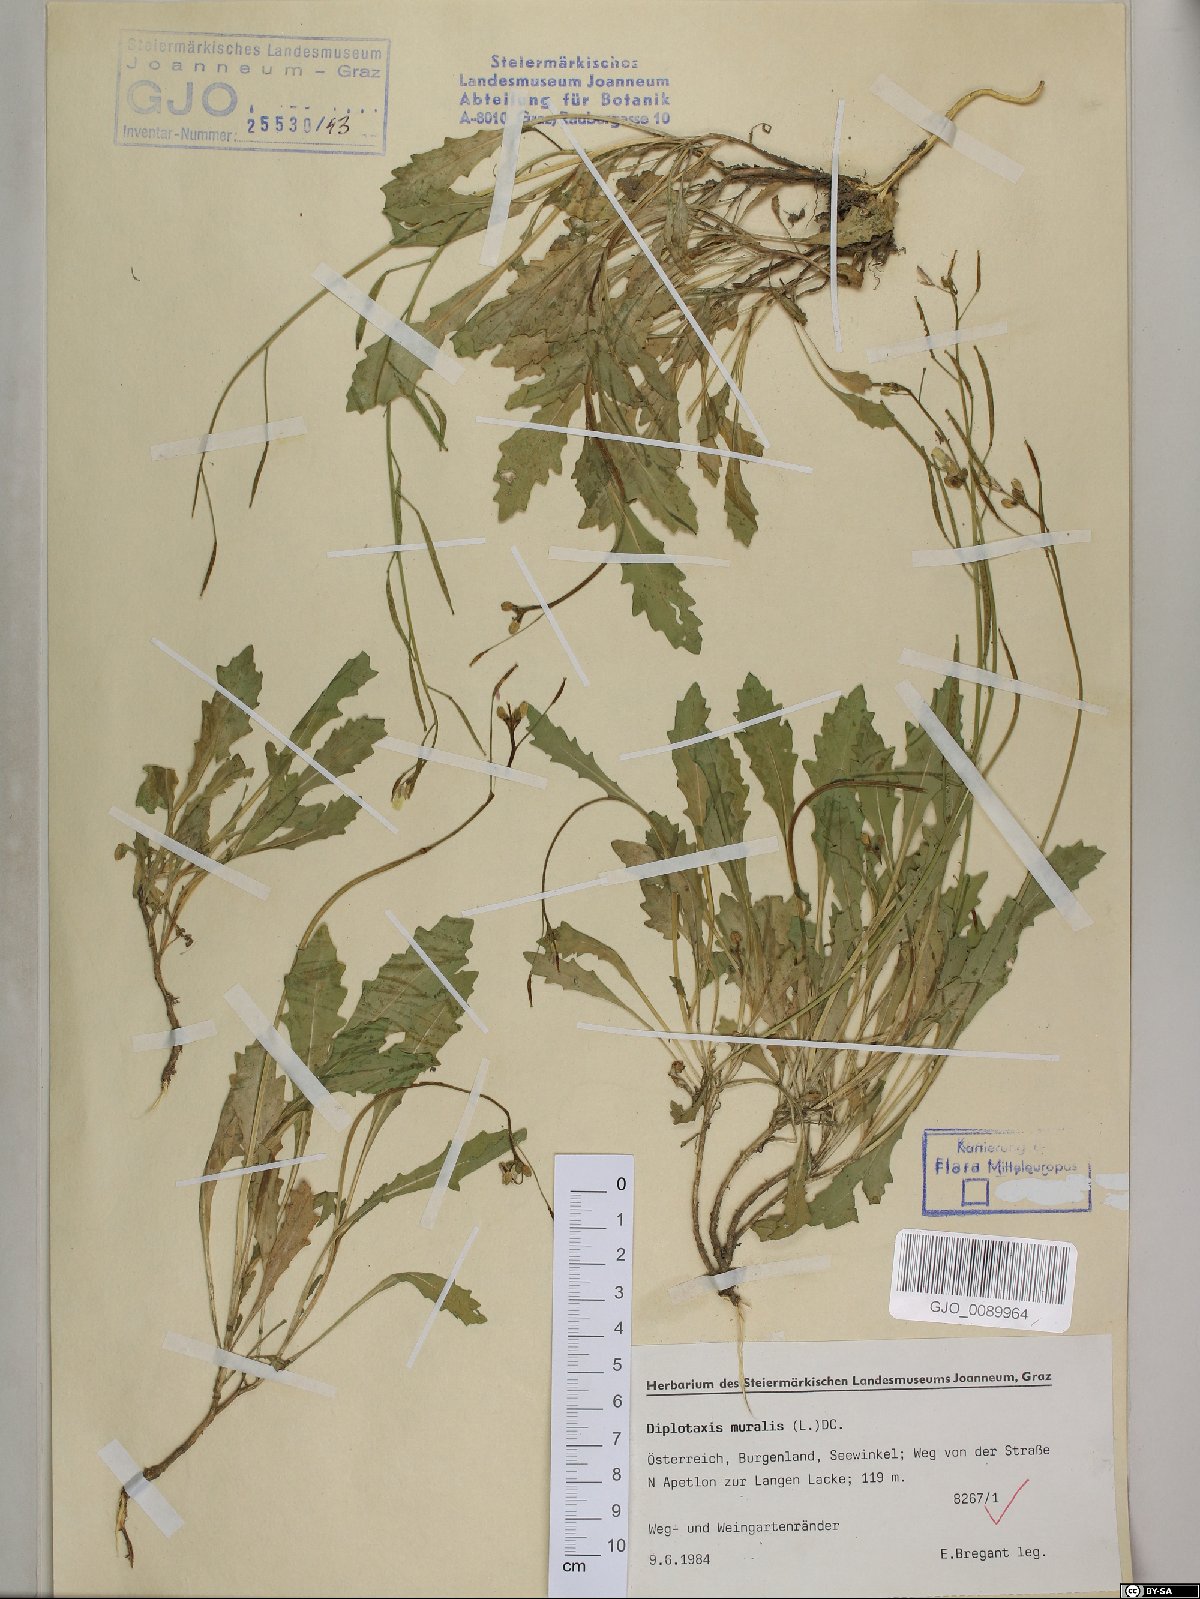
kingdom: Plantae
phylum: Tracheophyta
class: Magnoliopsida
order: Brassicales
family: Brassicaceae
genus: Diplotaxis
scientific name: Diplotaxis muralis
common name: Annual wall-rocket
